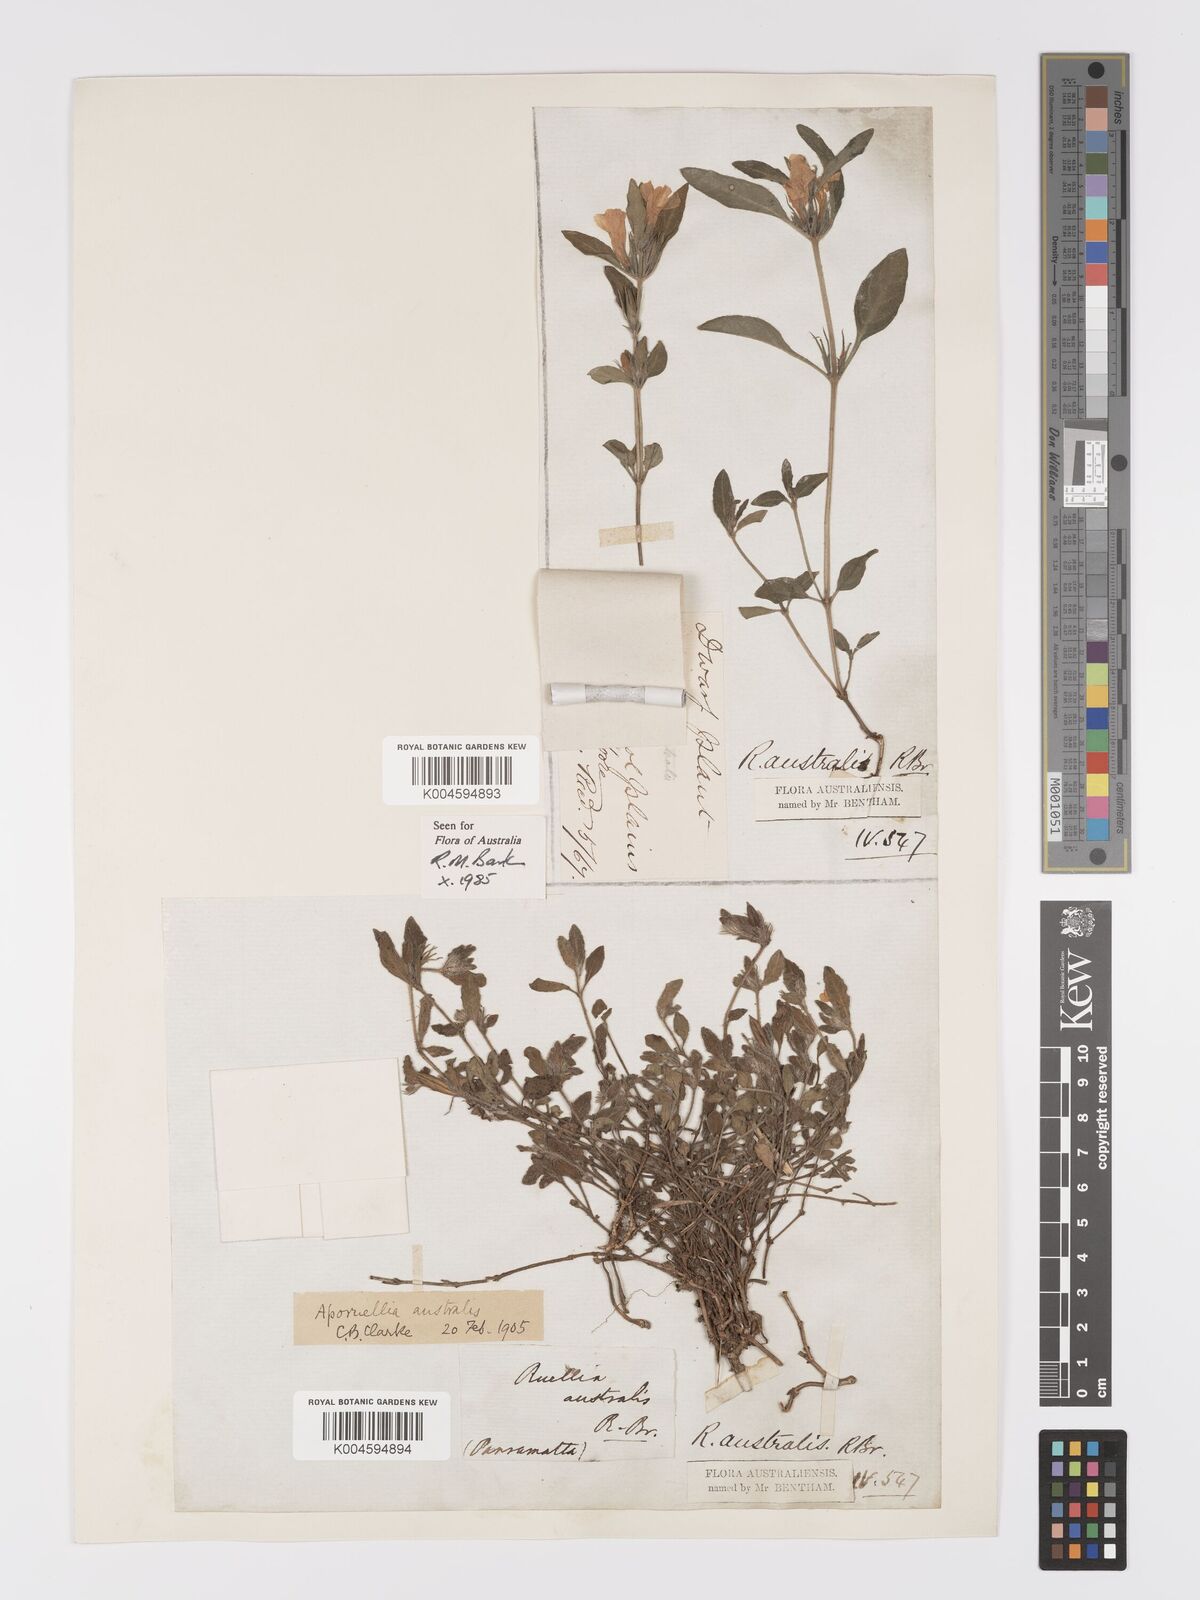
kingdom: Plantae
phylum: Tracheophyta
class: Magnoliopsida
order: Lamiales
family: Acanthaceae
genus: Brunoniella
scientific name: Brunoniella
